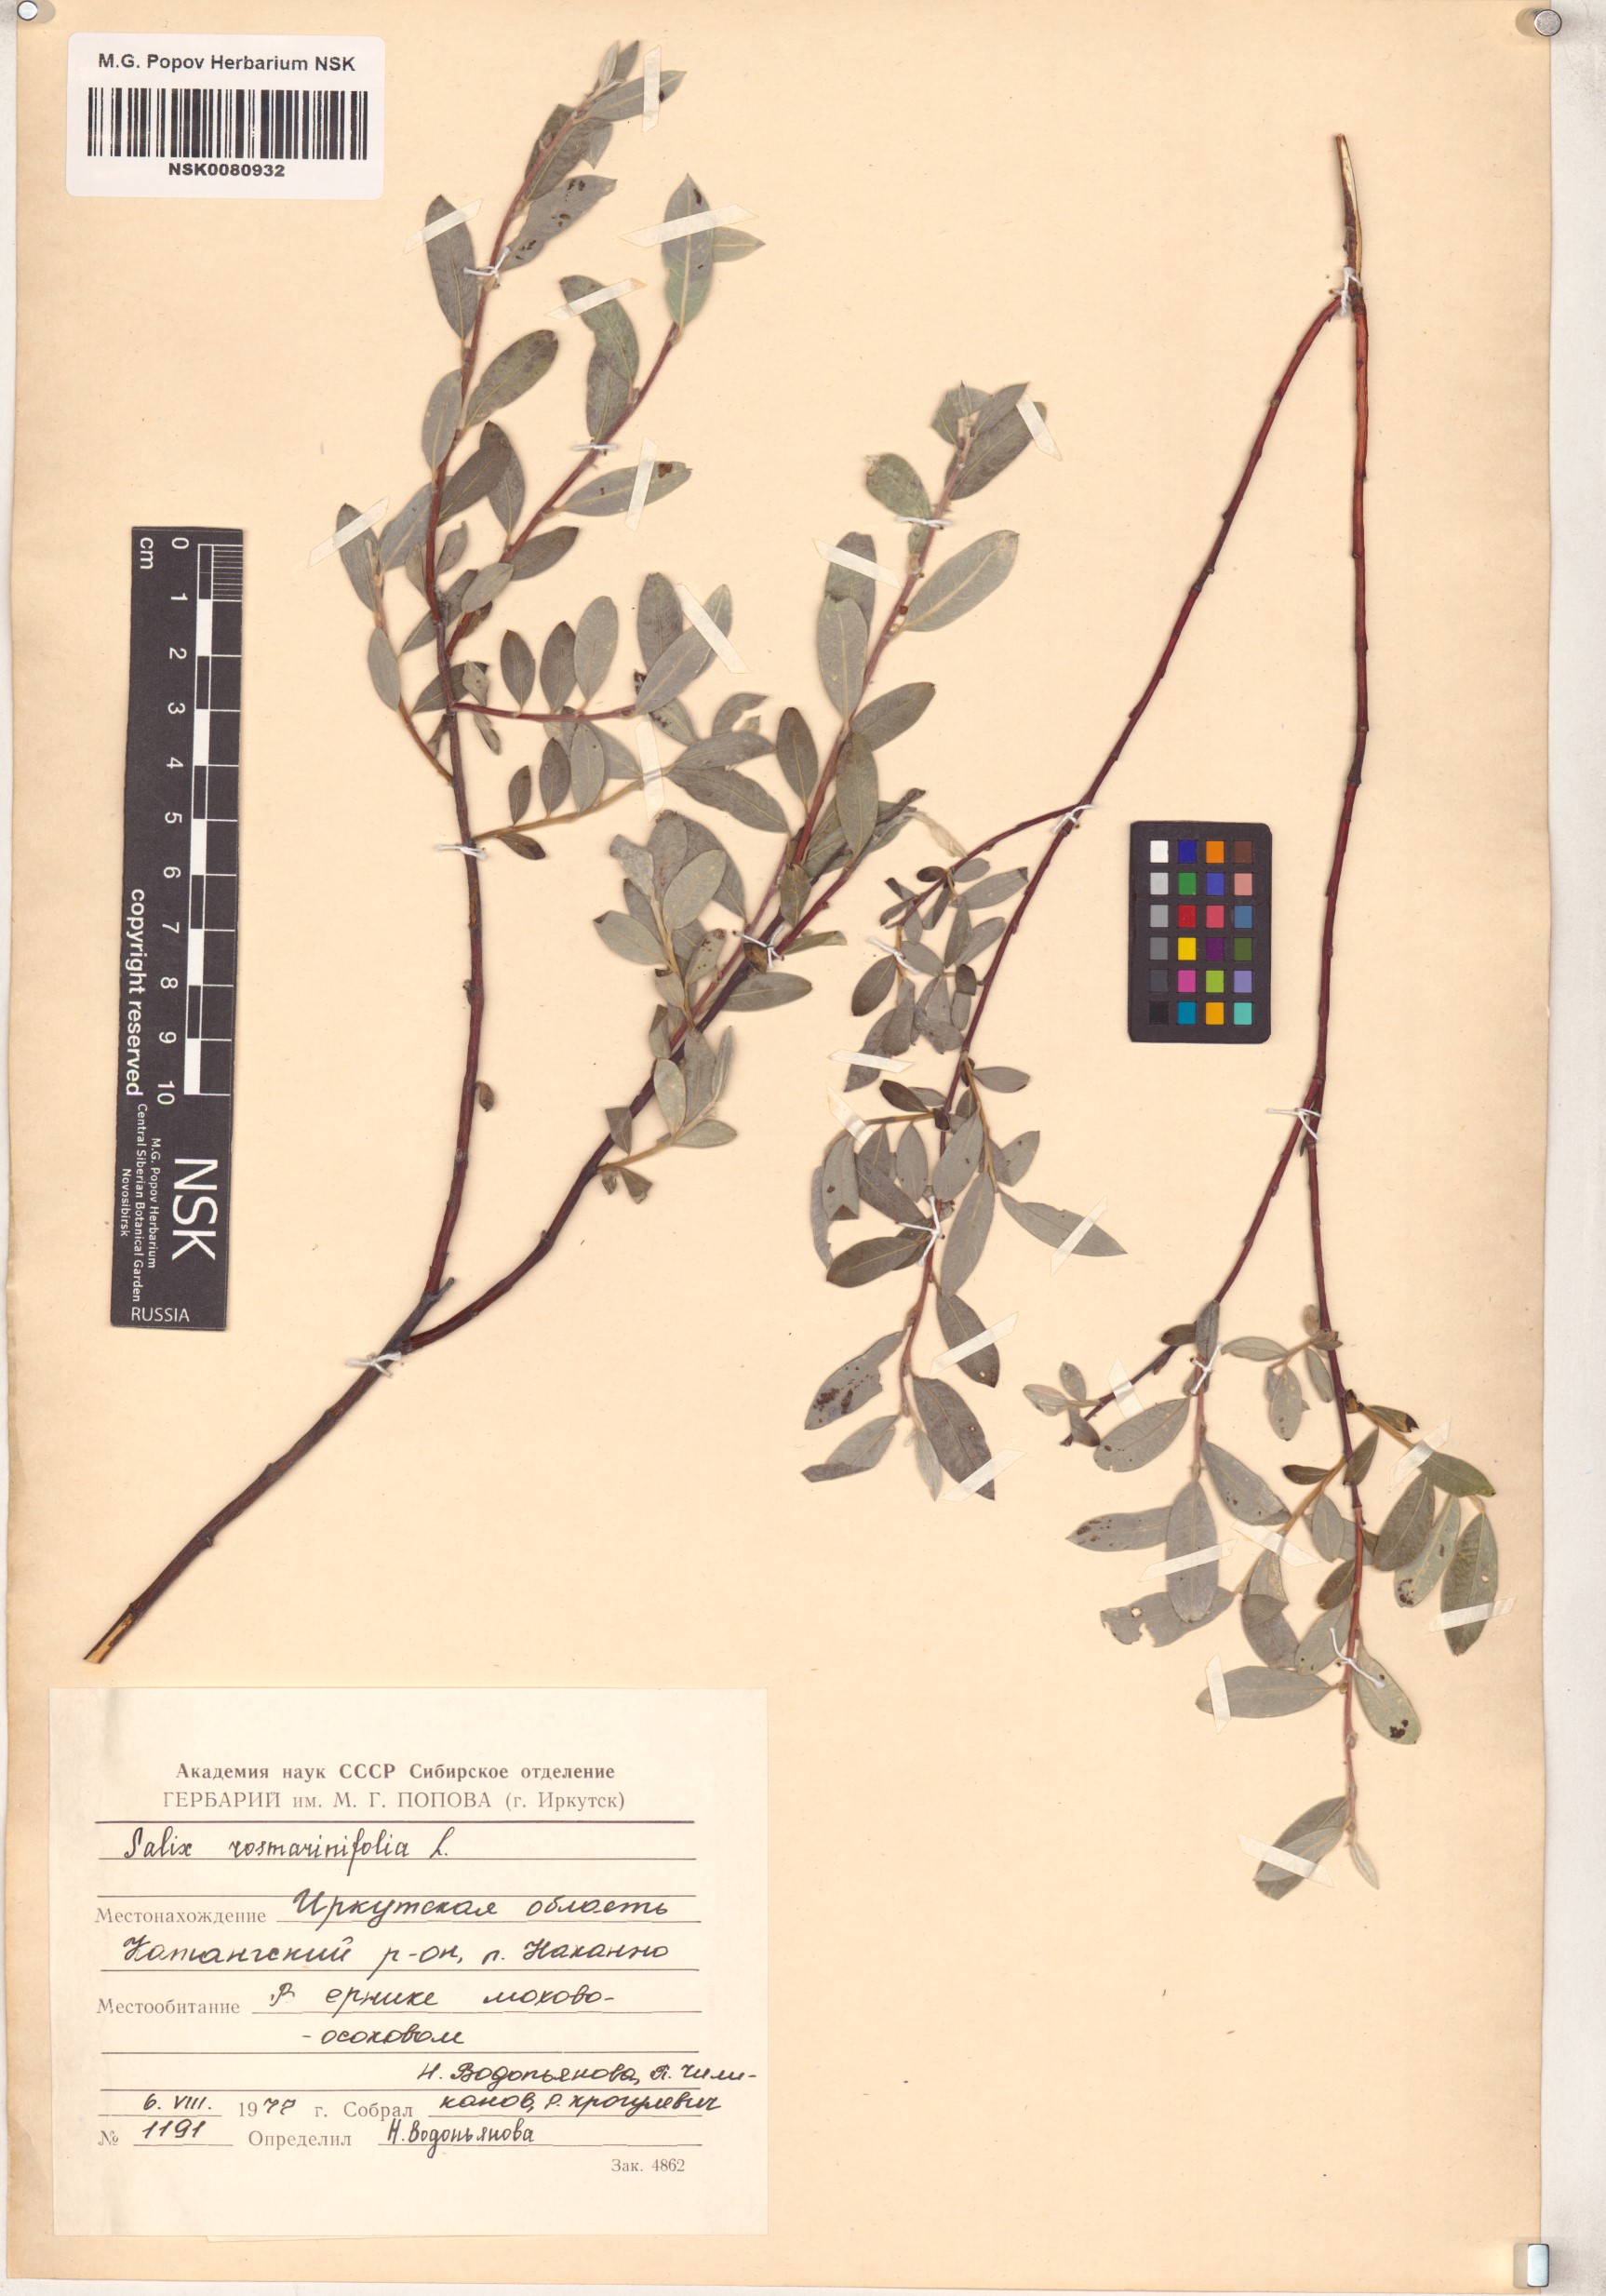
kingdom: Plantae
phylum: Tracheophyta
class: Magnoliopsida
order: Malpighiales
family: Salicaceae
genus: Salix
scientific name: Salix rosmarinifolia
